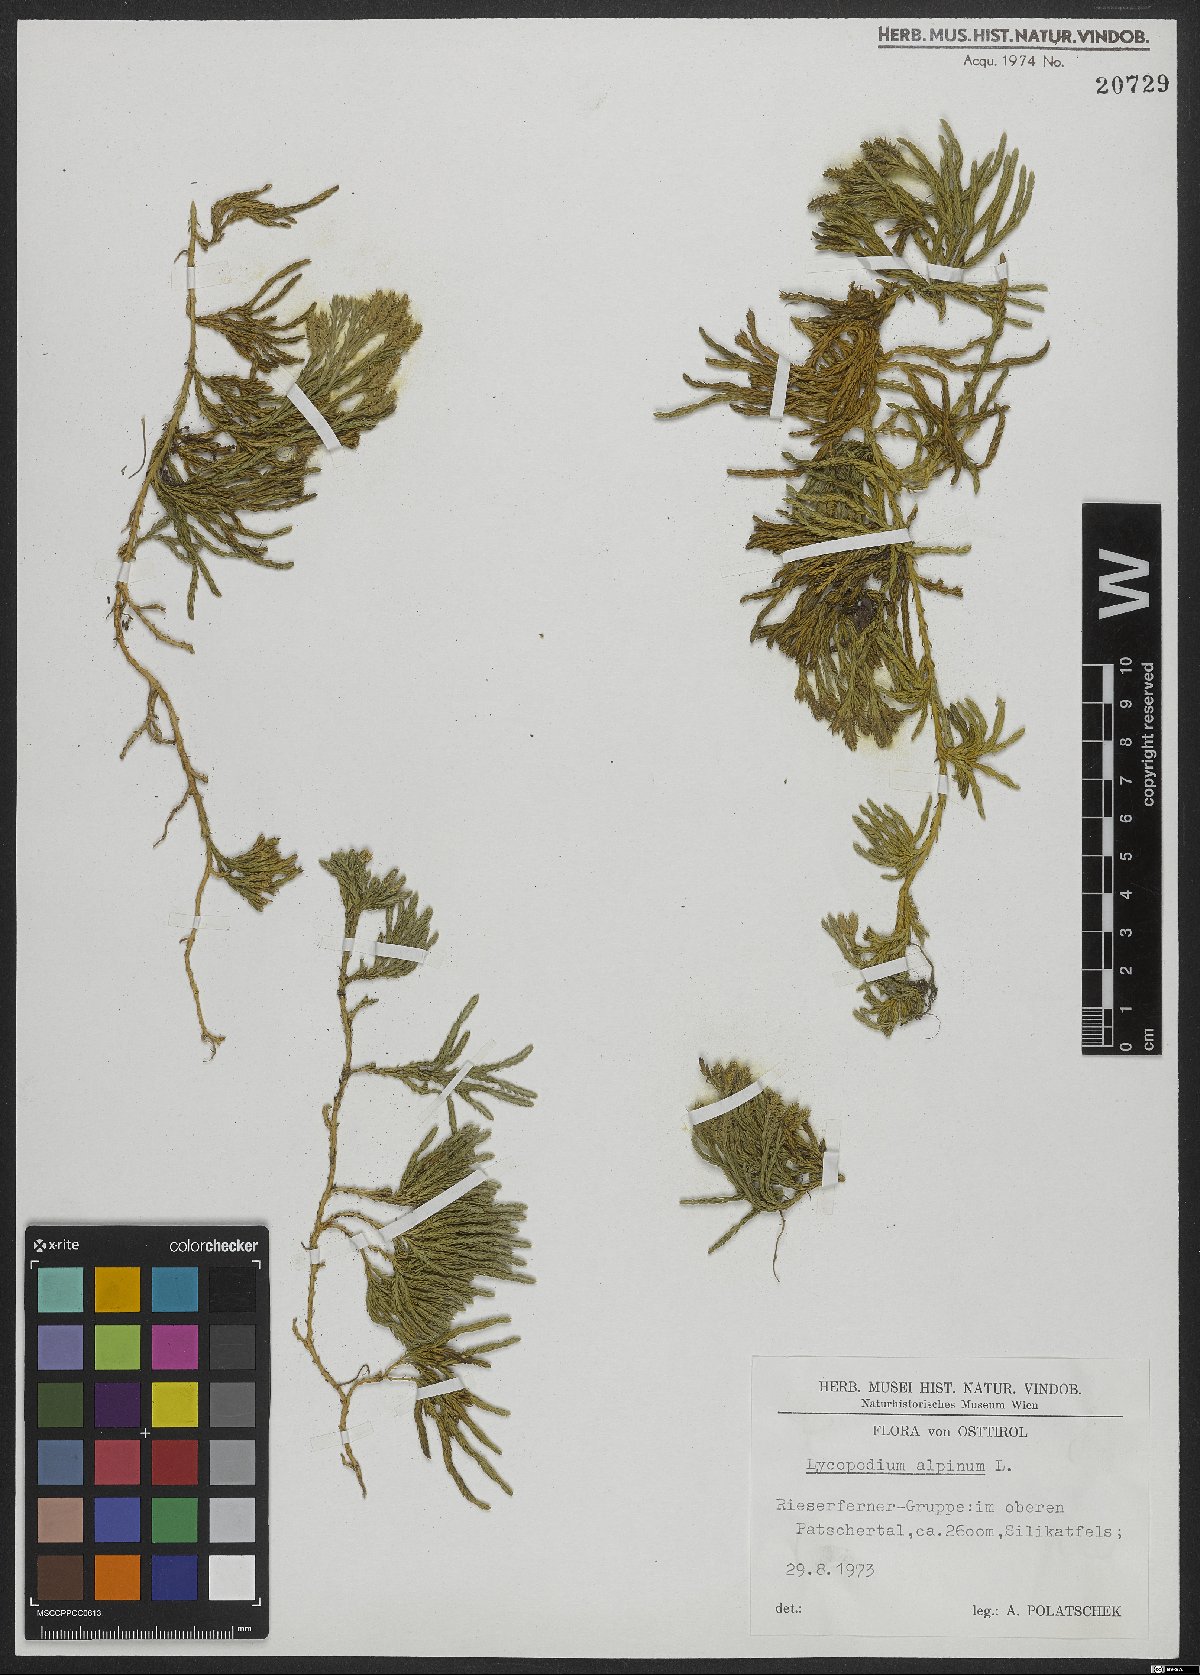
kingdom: Plantae
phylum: Tracheophyta
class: Lycopodiopsida
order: Lycopodiales
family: Lycopodiaceae
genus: Diphasiastrum
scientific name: Diphasiastrum alpinum
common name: Alpine clubmoss
